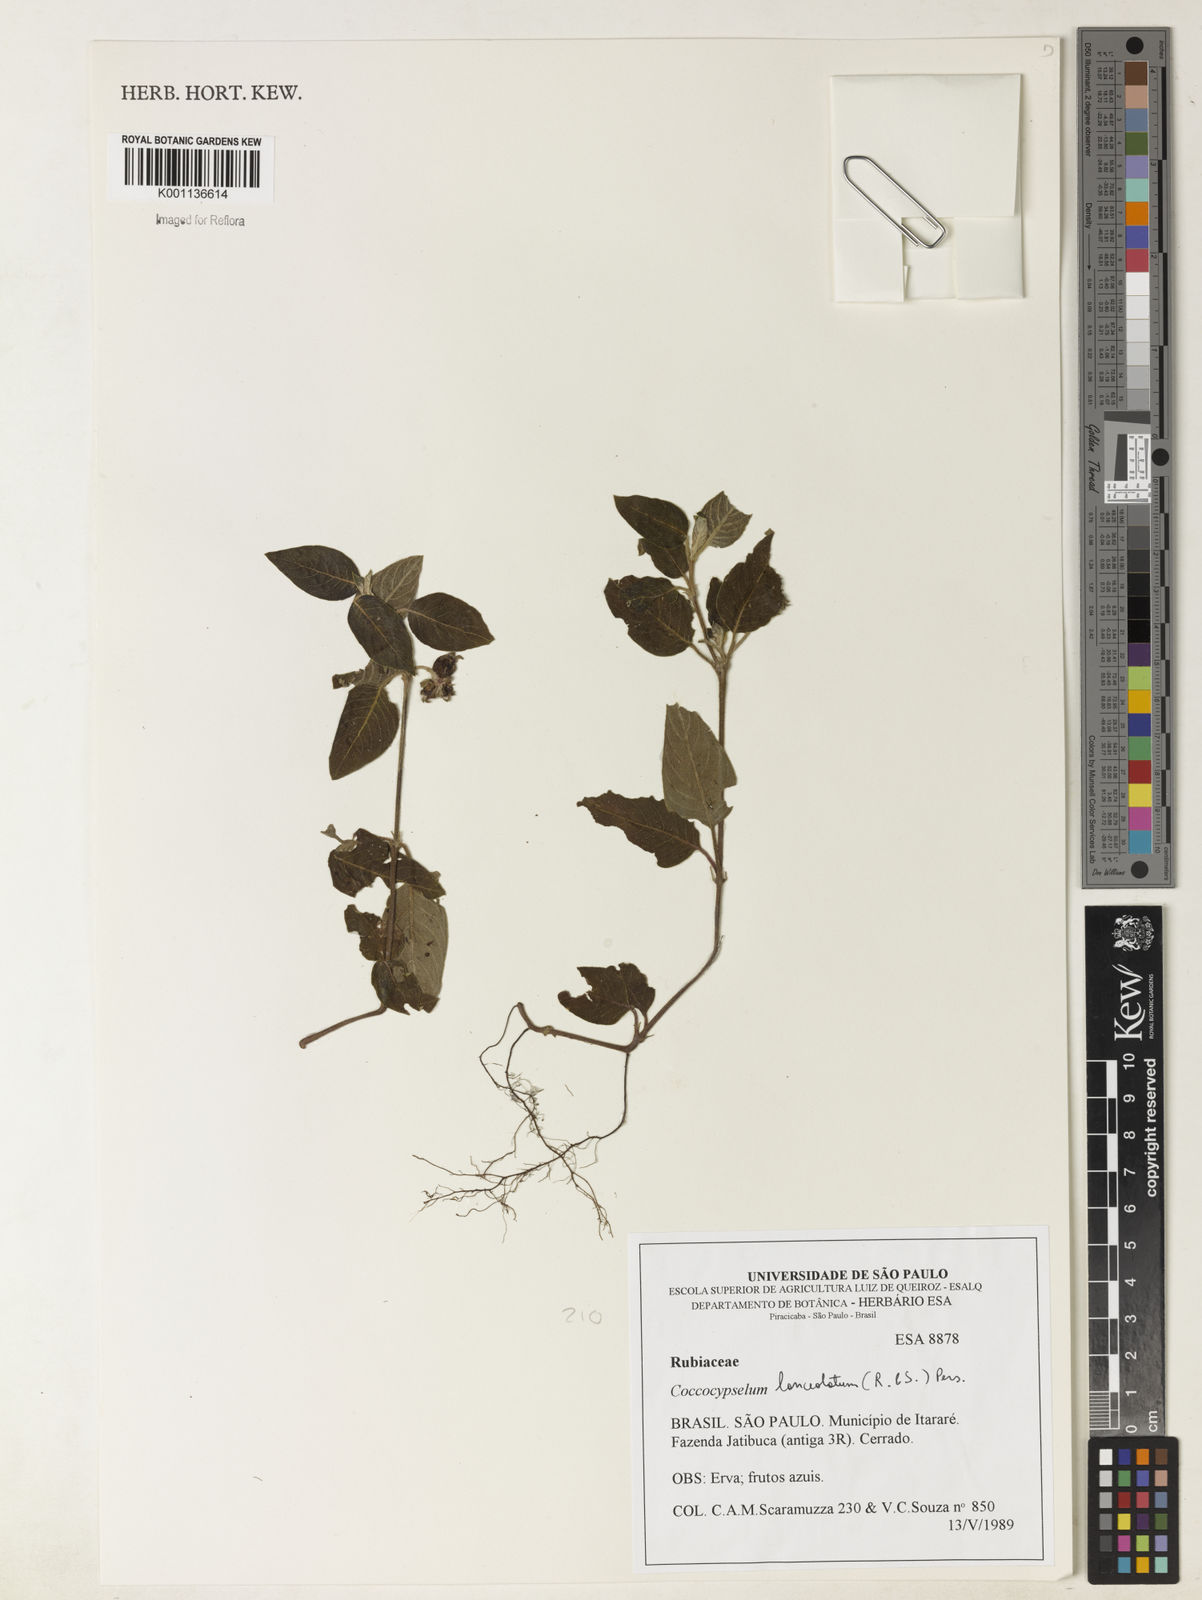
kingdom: Plantae
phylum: Tracheophyta
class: Magnoliopsida
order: Gentianales
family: Rubiaceae
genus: Coccocypselum
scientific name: Coccocypselum lanceolatum
